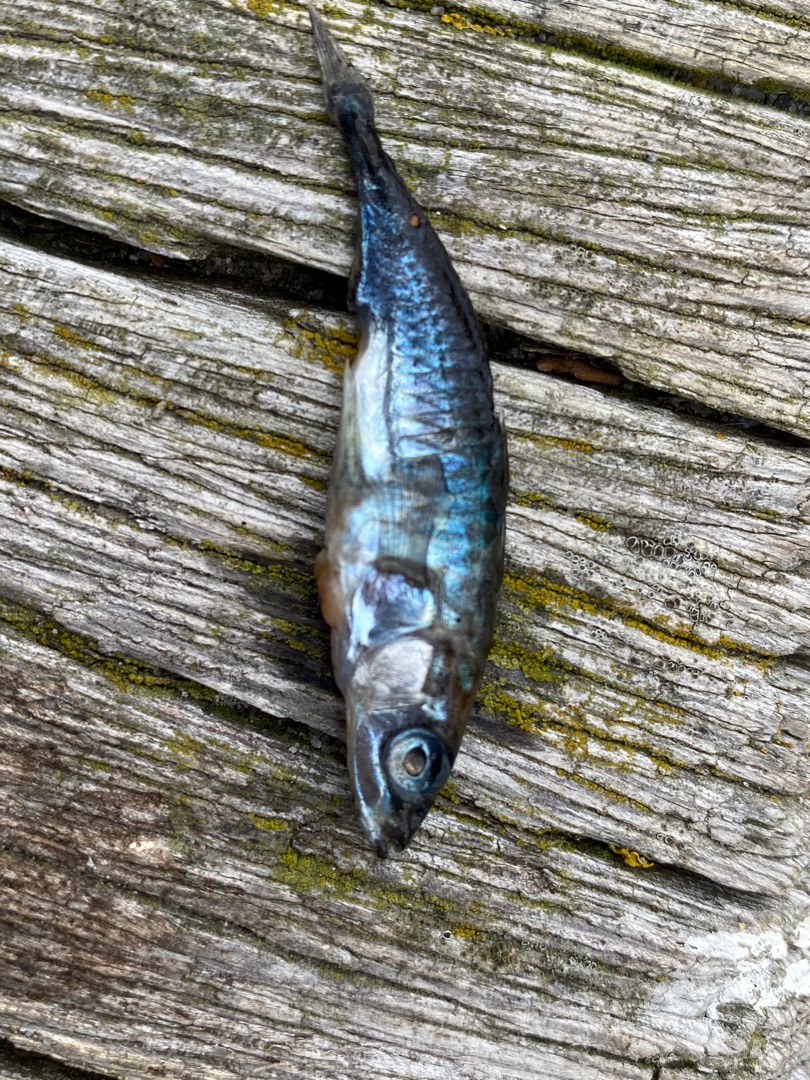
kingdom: Animalia
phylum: Chordata
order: Gasterosteiformes
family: Gasterosteidae
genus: Gasterosteus
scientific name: Gasterosteus aculeatus
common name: Trepigget hundestejle
